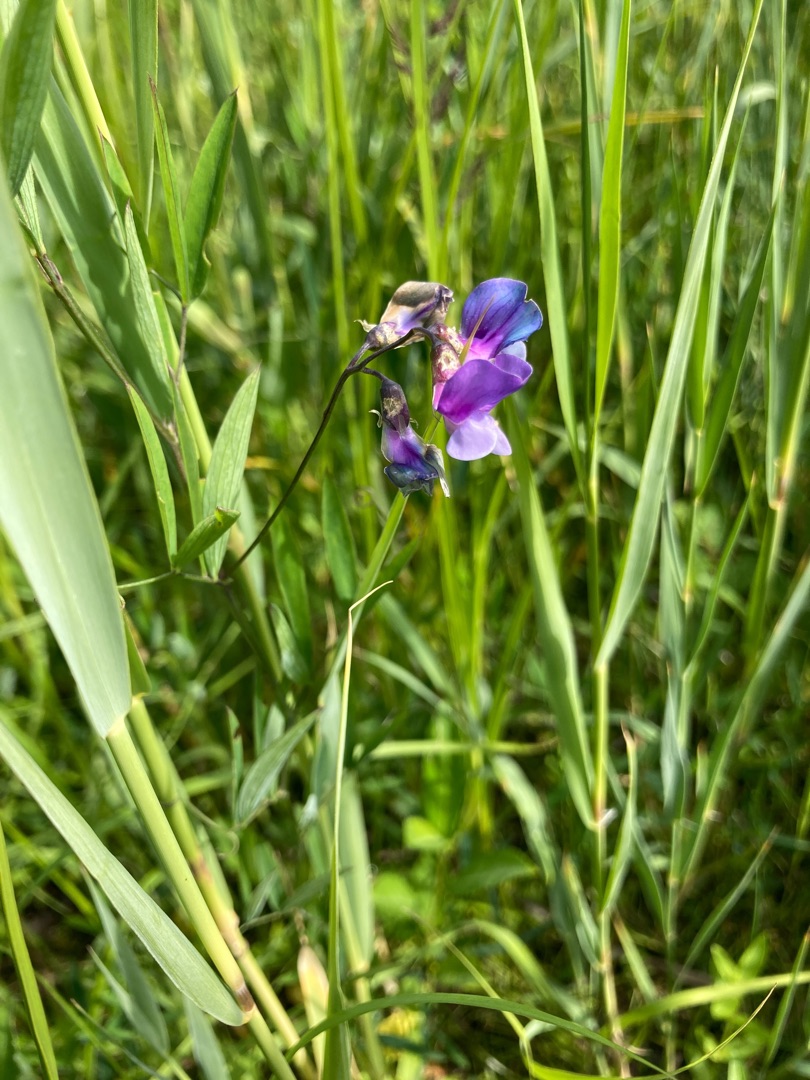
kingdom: Plantae
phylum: Tracheophyta
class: Magnoliopsida
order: Fabales
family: Fabaceae
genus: Lathyrus
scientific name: Lathyrus palustris
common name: Kær-fladbælg
